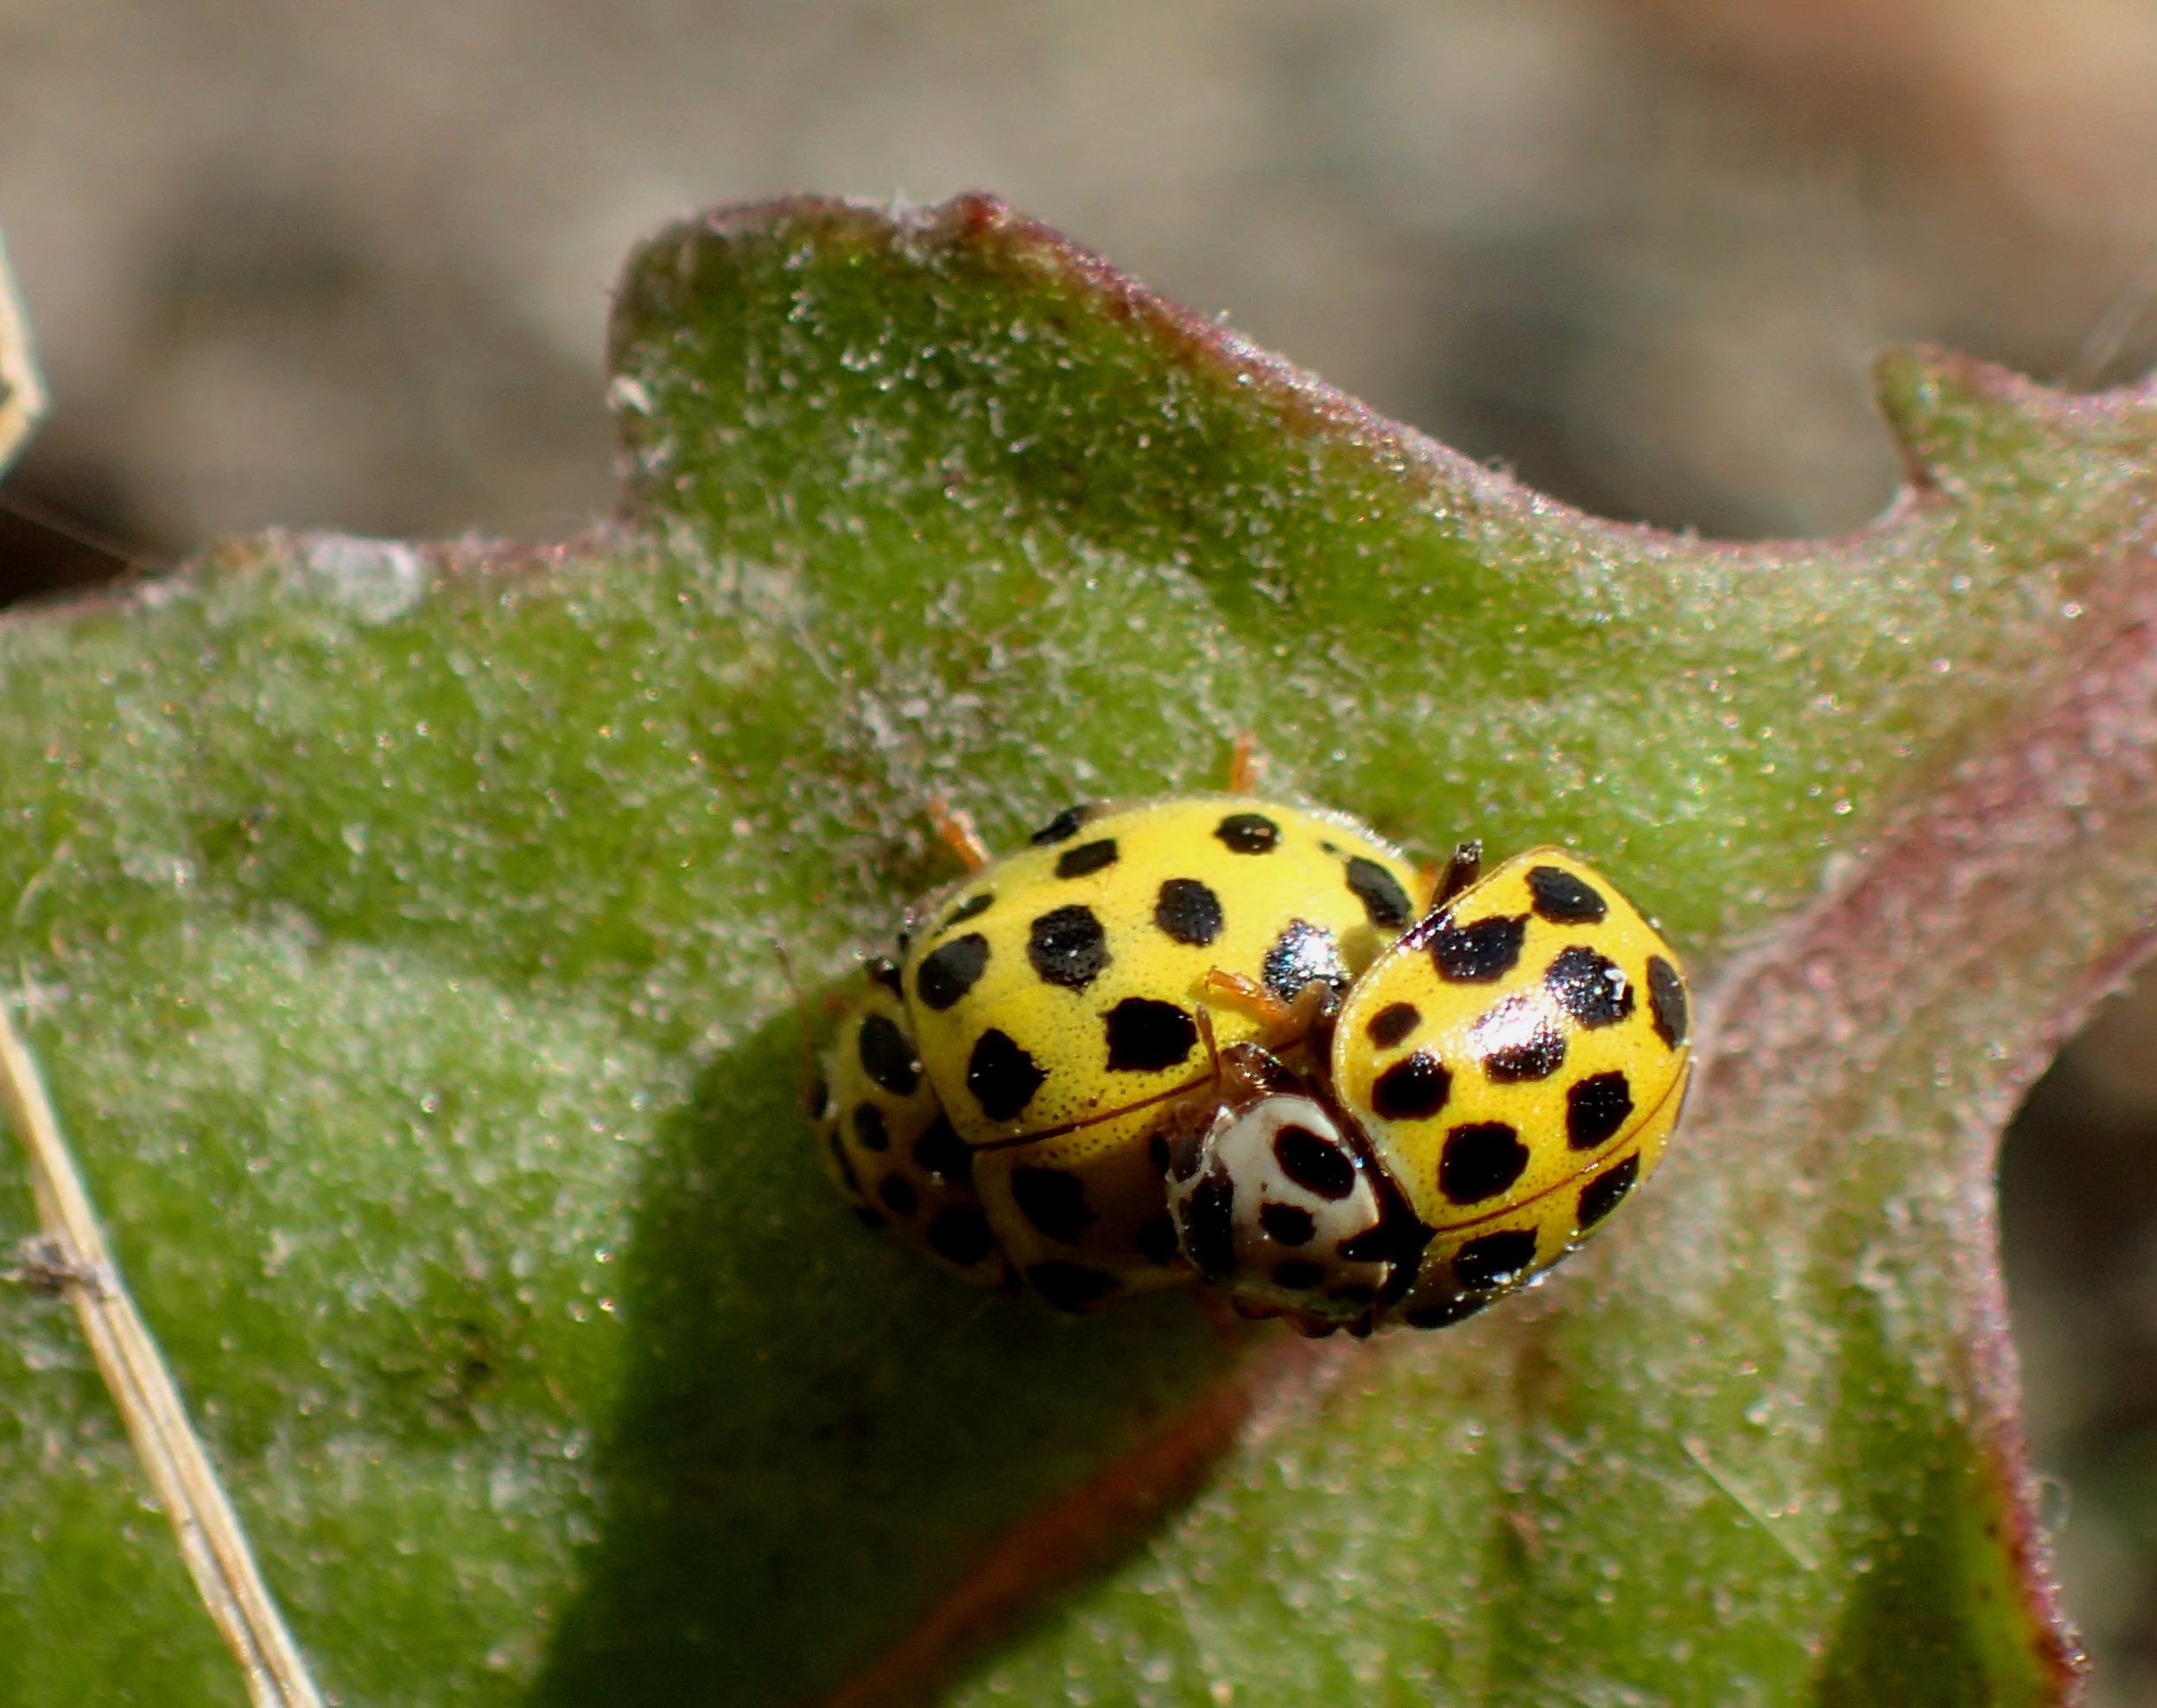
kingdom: Animalia
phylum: Arthropoda
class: Insecta
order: Coleoptera
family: Coccinellidae
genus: Psyllobora
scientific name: Psyllobora vigintiduopunctata
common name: Toogtyveplettet mariehøne
